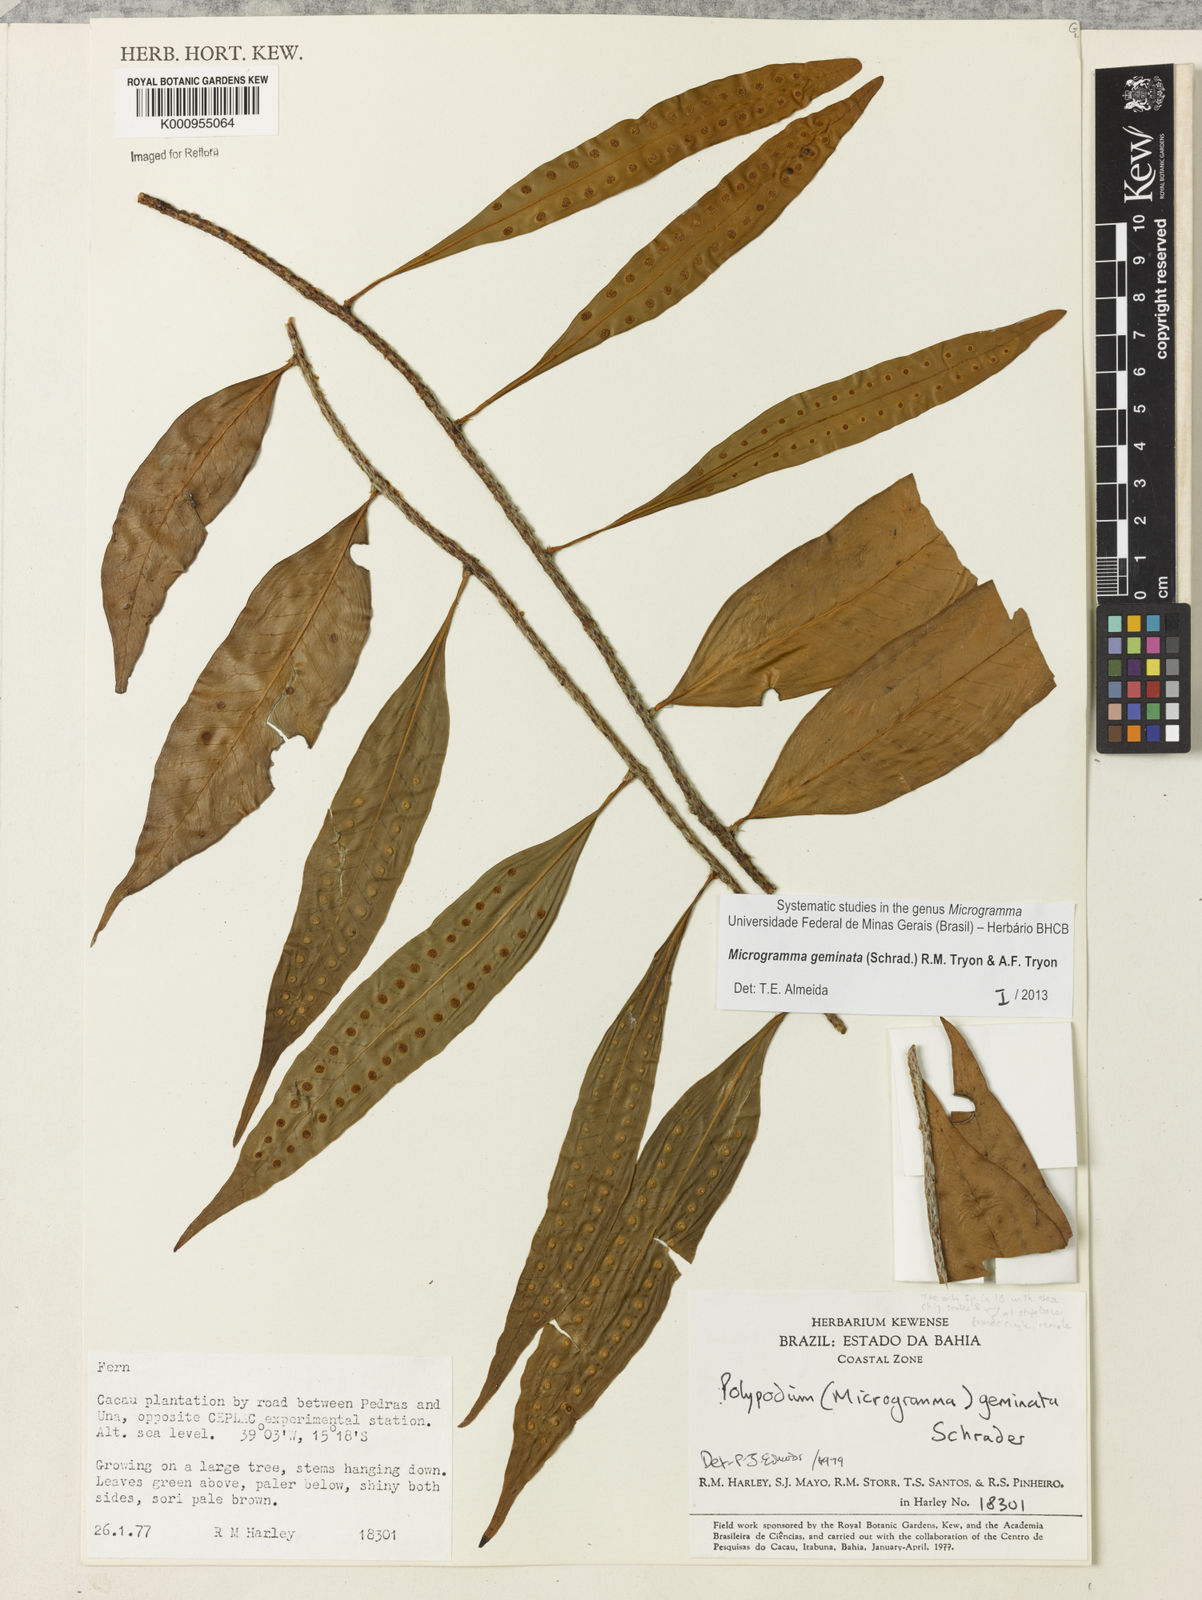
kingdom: Plantae
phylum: Tracheophyta
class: Polypodiopsida
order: Polypodiales
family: Polypodiaceae
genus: Microgramma
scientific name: Microgramma geminata
